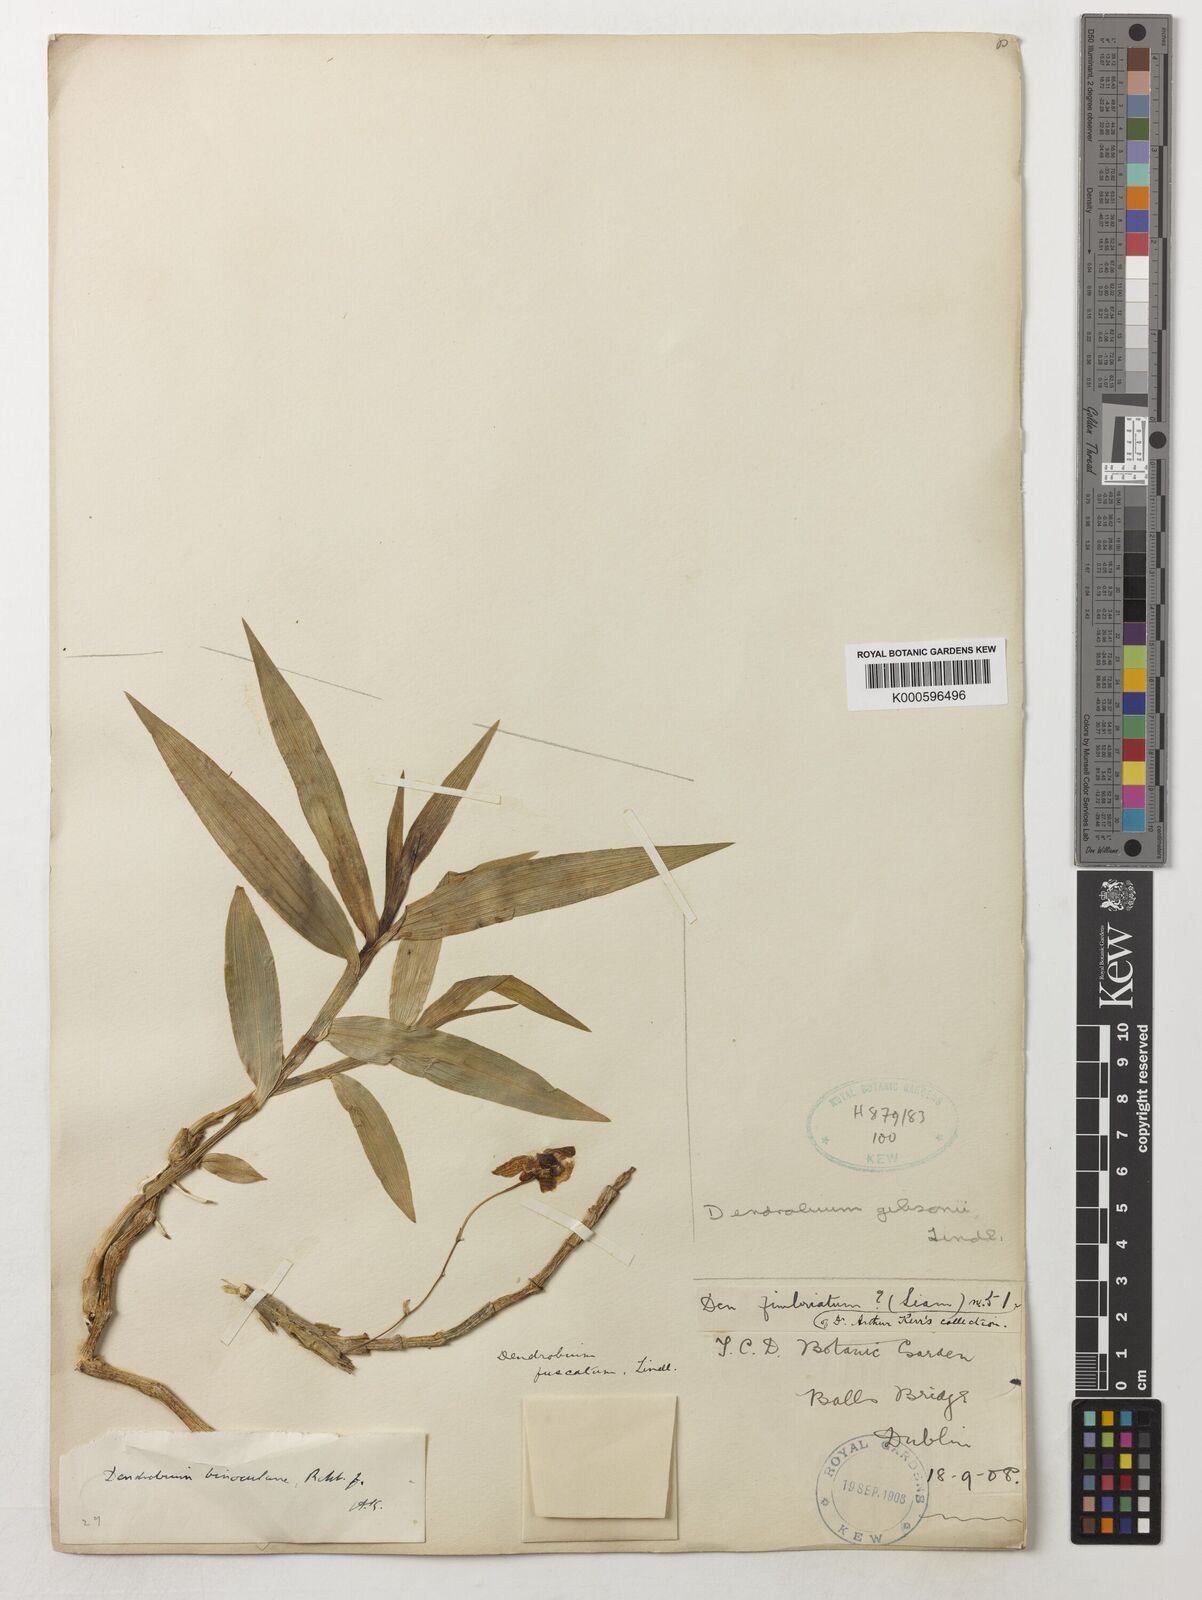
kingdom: Plantae
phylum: Tracheophyta
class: Liliopsida
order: Asparagales
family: Orchidaceae
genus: Dendrobium
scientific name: Dendrobium
